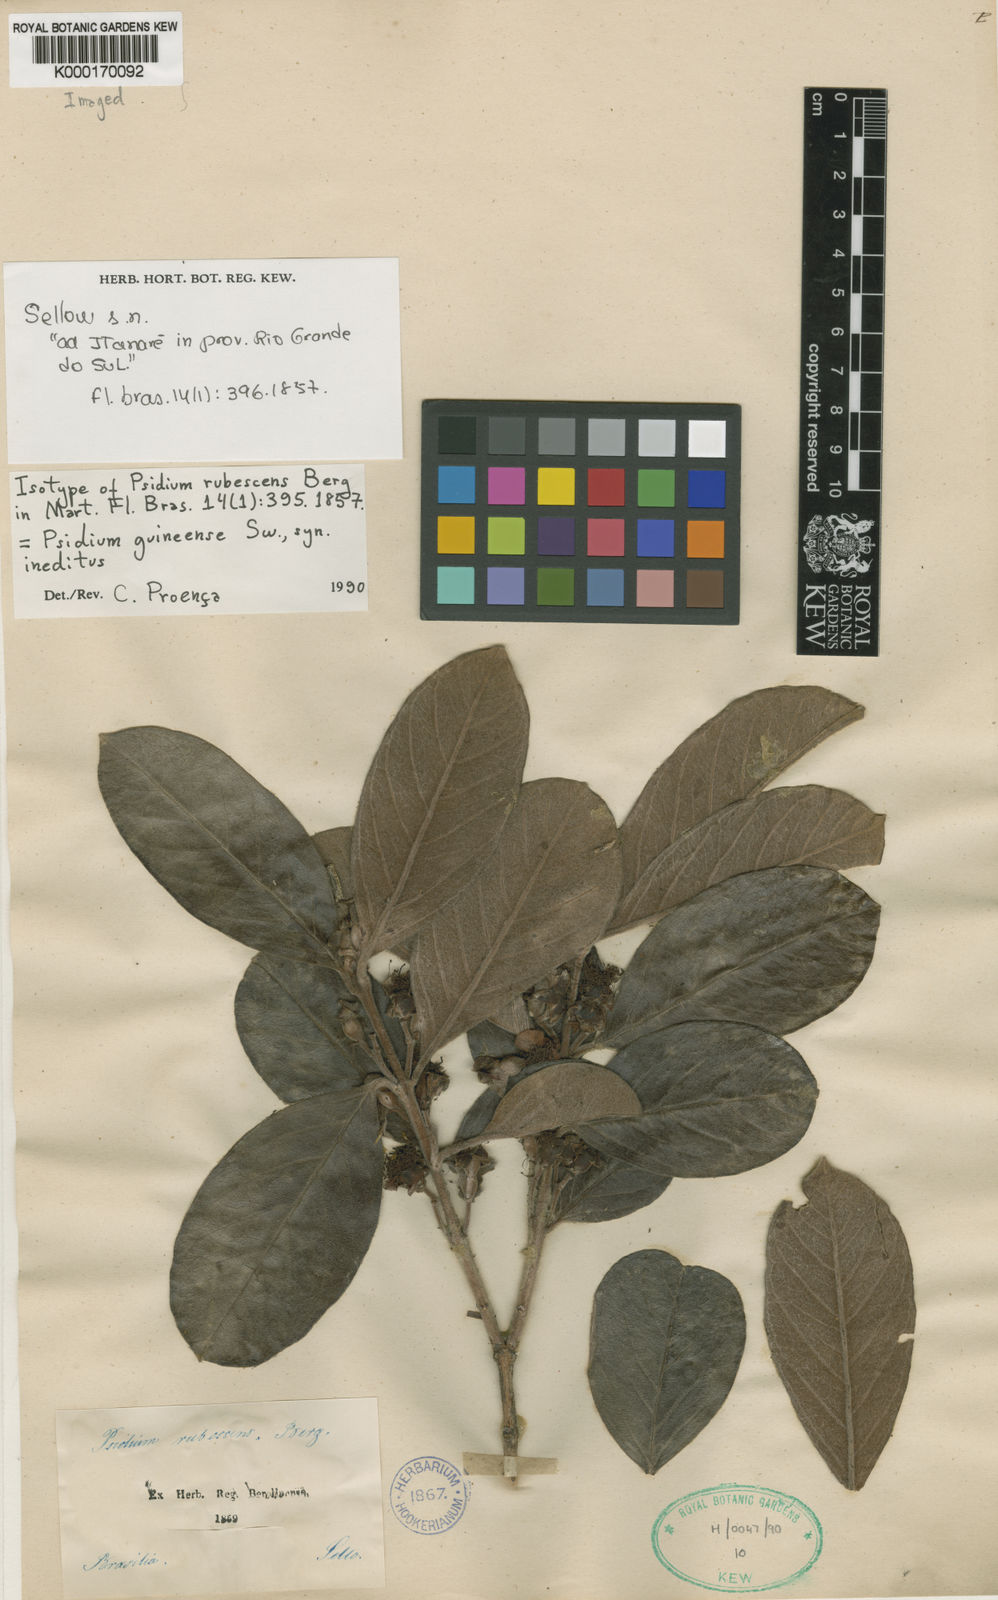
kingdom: Plantae
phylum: Tracheophyta
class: Magnoliopsida
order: Myrtales
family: Myrtaceae
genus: Psidium
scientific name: Psidium guineense
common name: Brazilian guava
